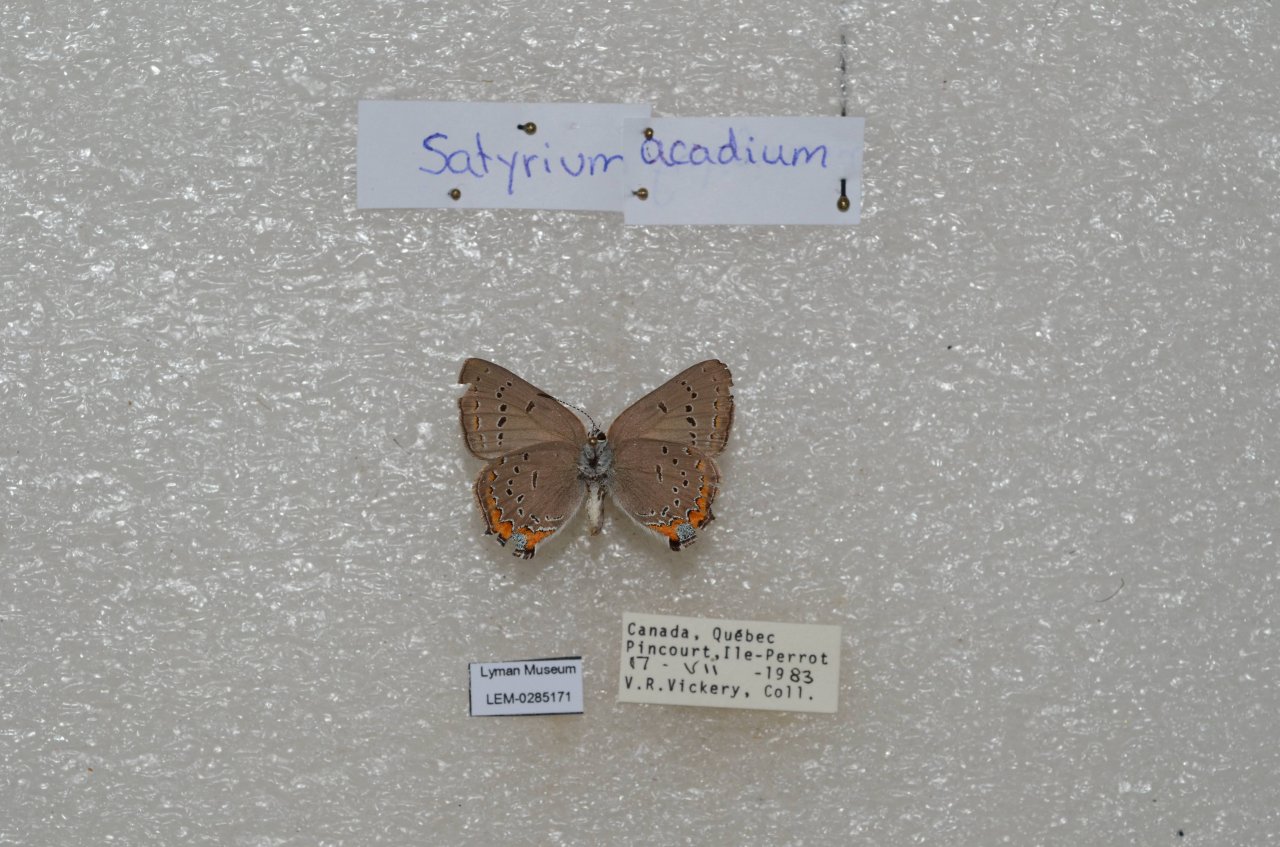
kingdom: Animalia
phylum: Arthropoda
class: Insecta
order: Lepidoptera
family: Lycaenidae
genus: Strymon
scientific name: Strymon acadica
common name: Acadian Hairstreak
